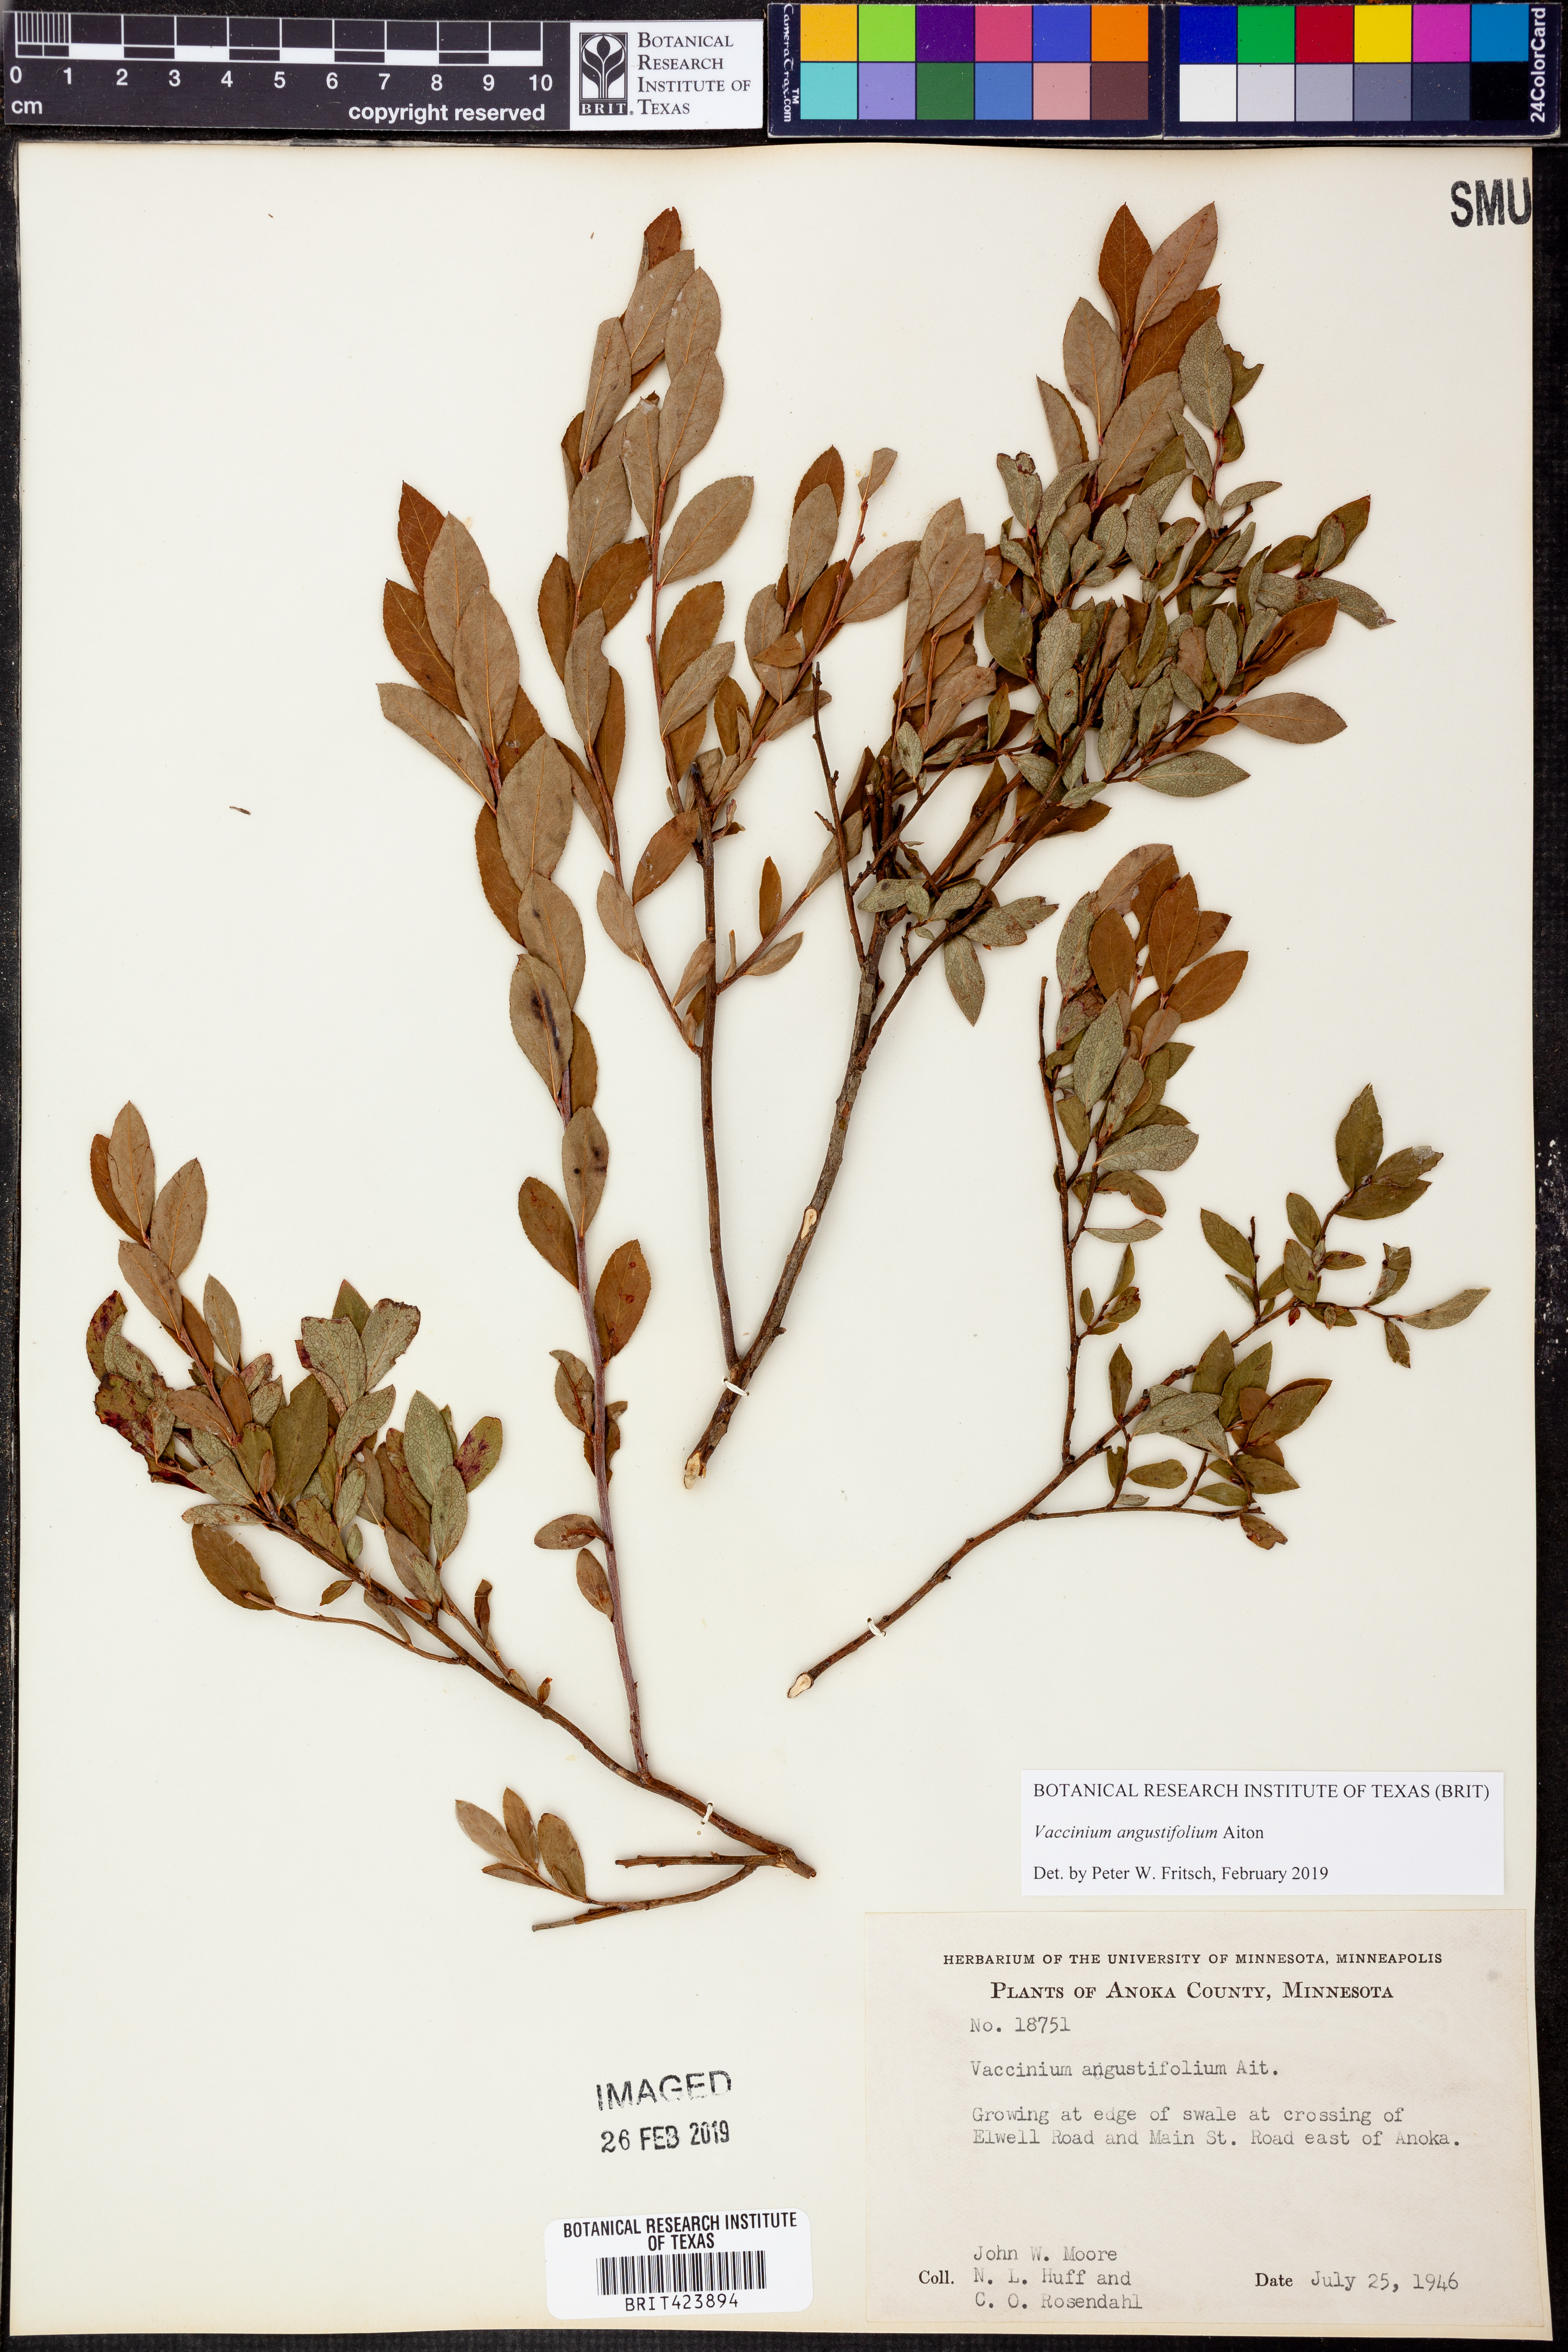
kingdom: Plantae
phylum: Tracheophyta
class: Magnoliopsida
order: Ericales
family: Ericaceae
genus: Vaccinium
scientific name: Vaccinium angustifolium
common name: Early lowbush blueberry
